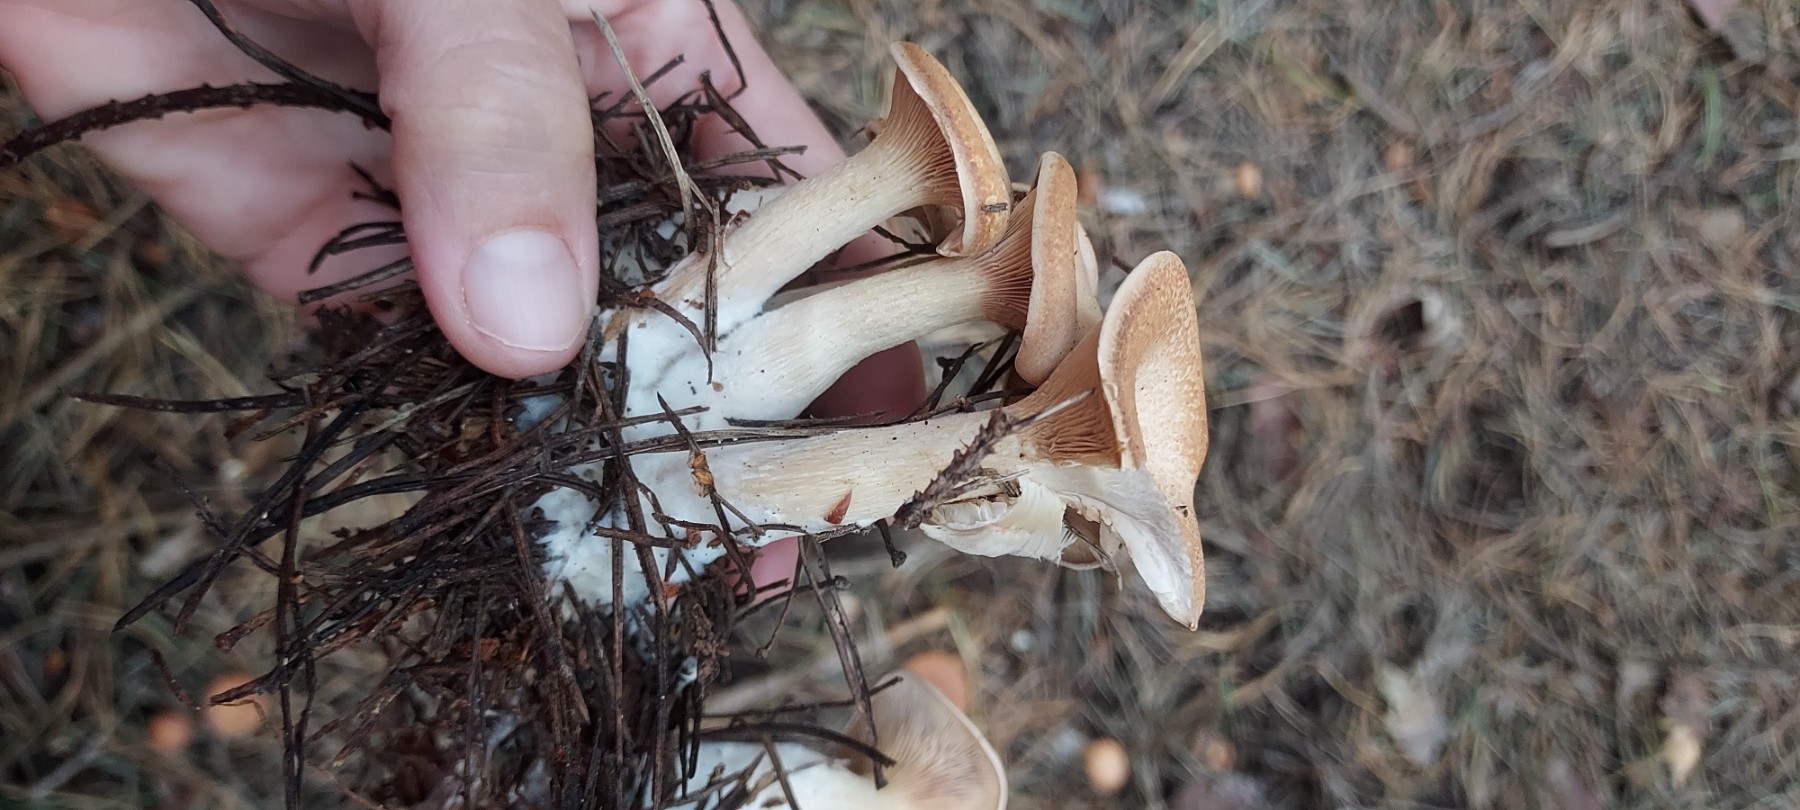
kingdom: Fungi
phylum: Basidiomycota
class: Agaricomycetes
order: Agaricales
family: Tricholomataceae
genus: Paralepista
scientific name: Paralepista gilva
